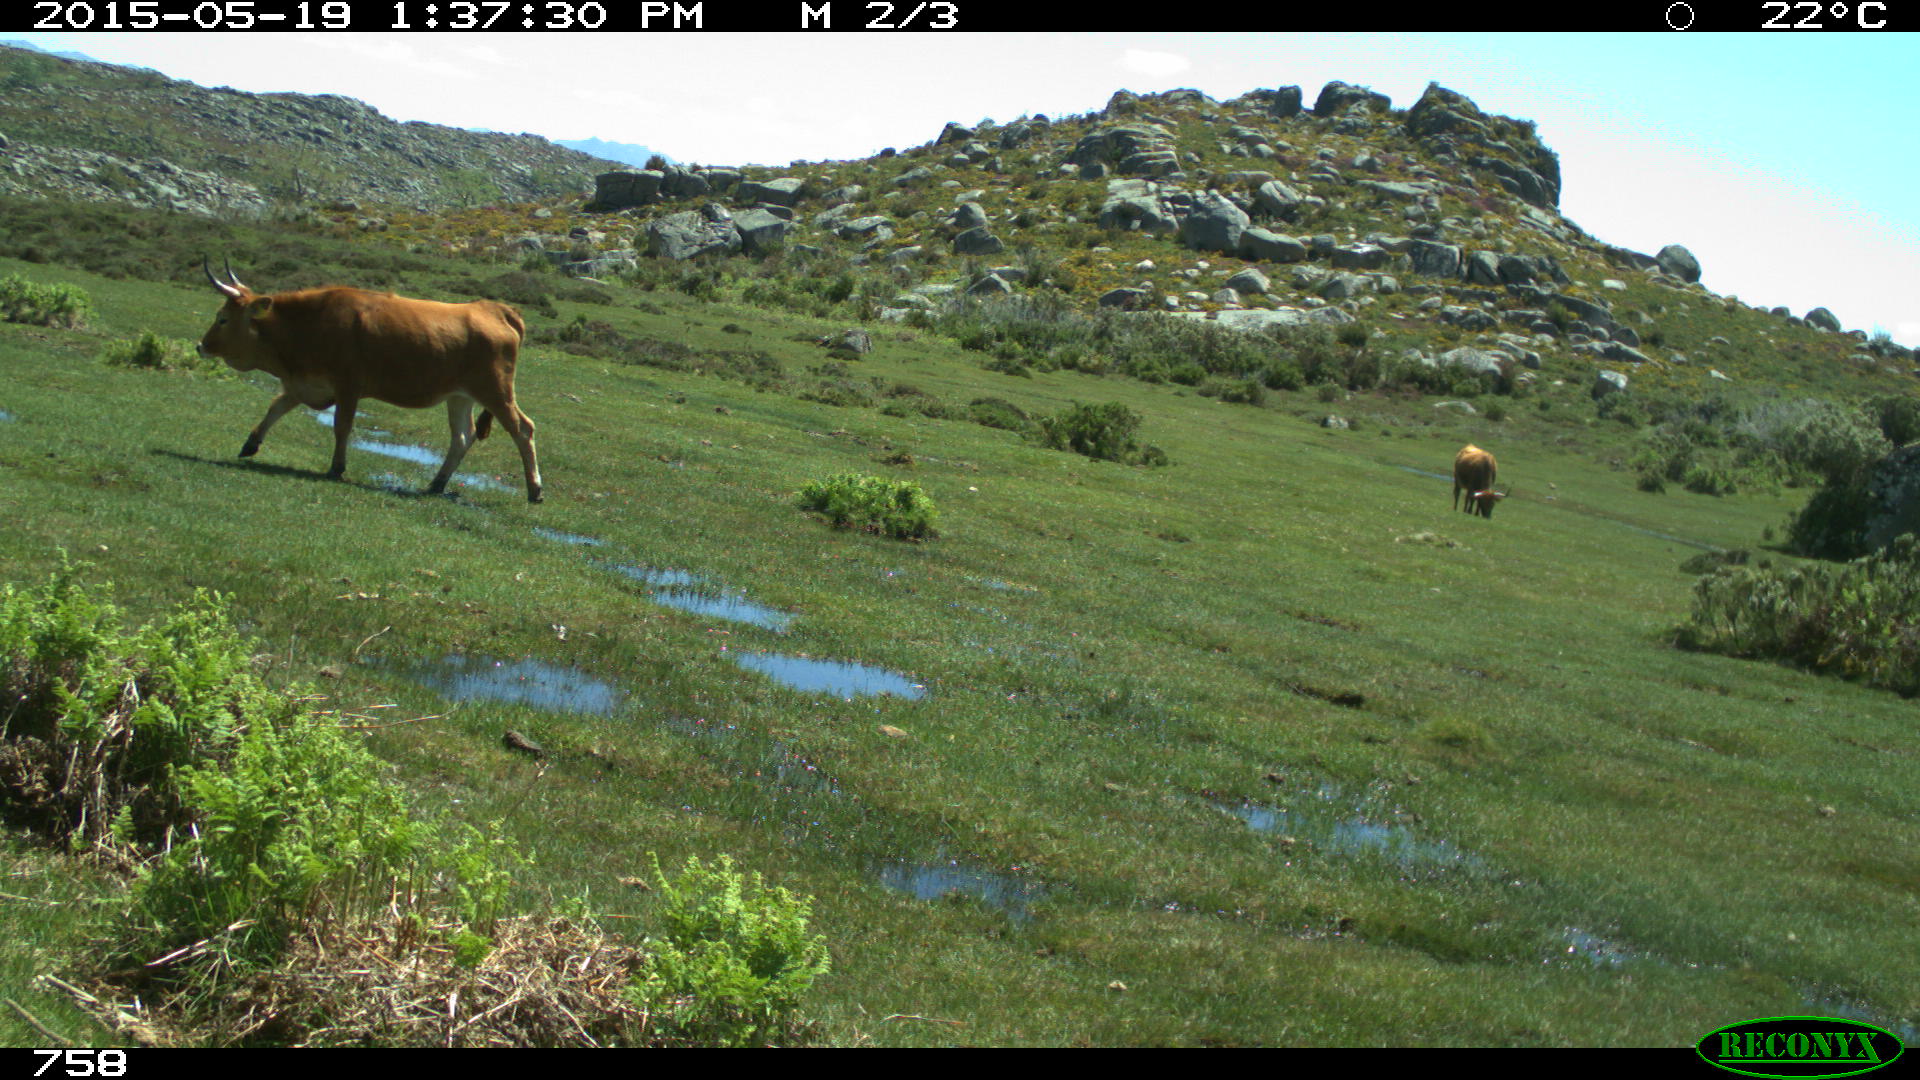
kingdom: Animalia
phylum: Chordata
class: Mammalia
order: Artiodactyla
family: Bovidae
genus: Bos
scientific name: Bos taurus
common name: Domesticated cattle
